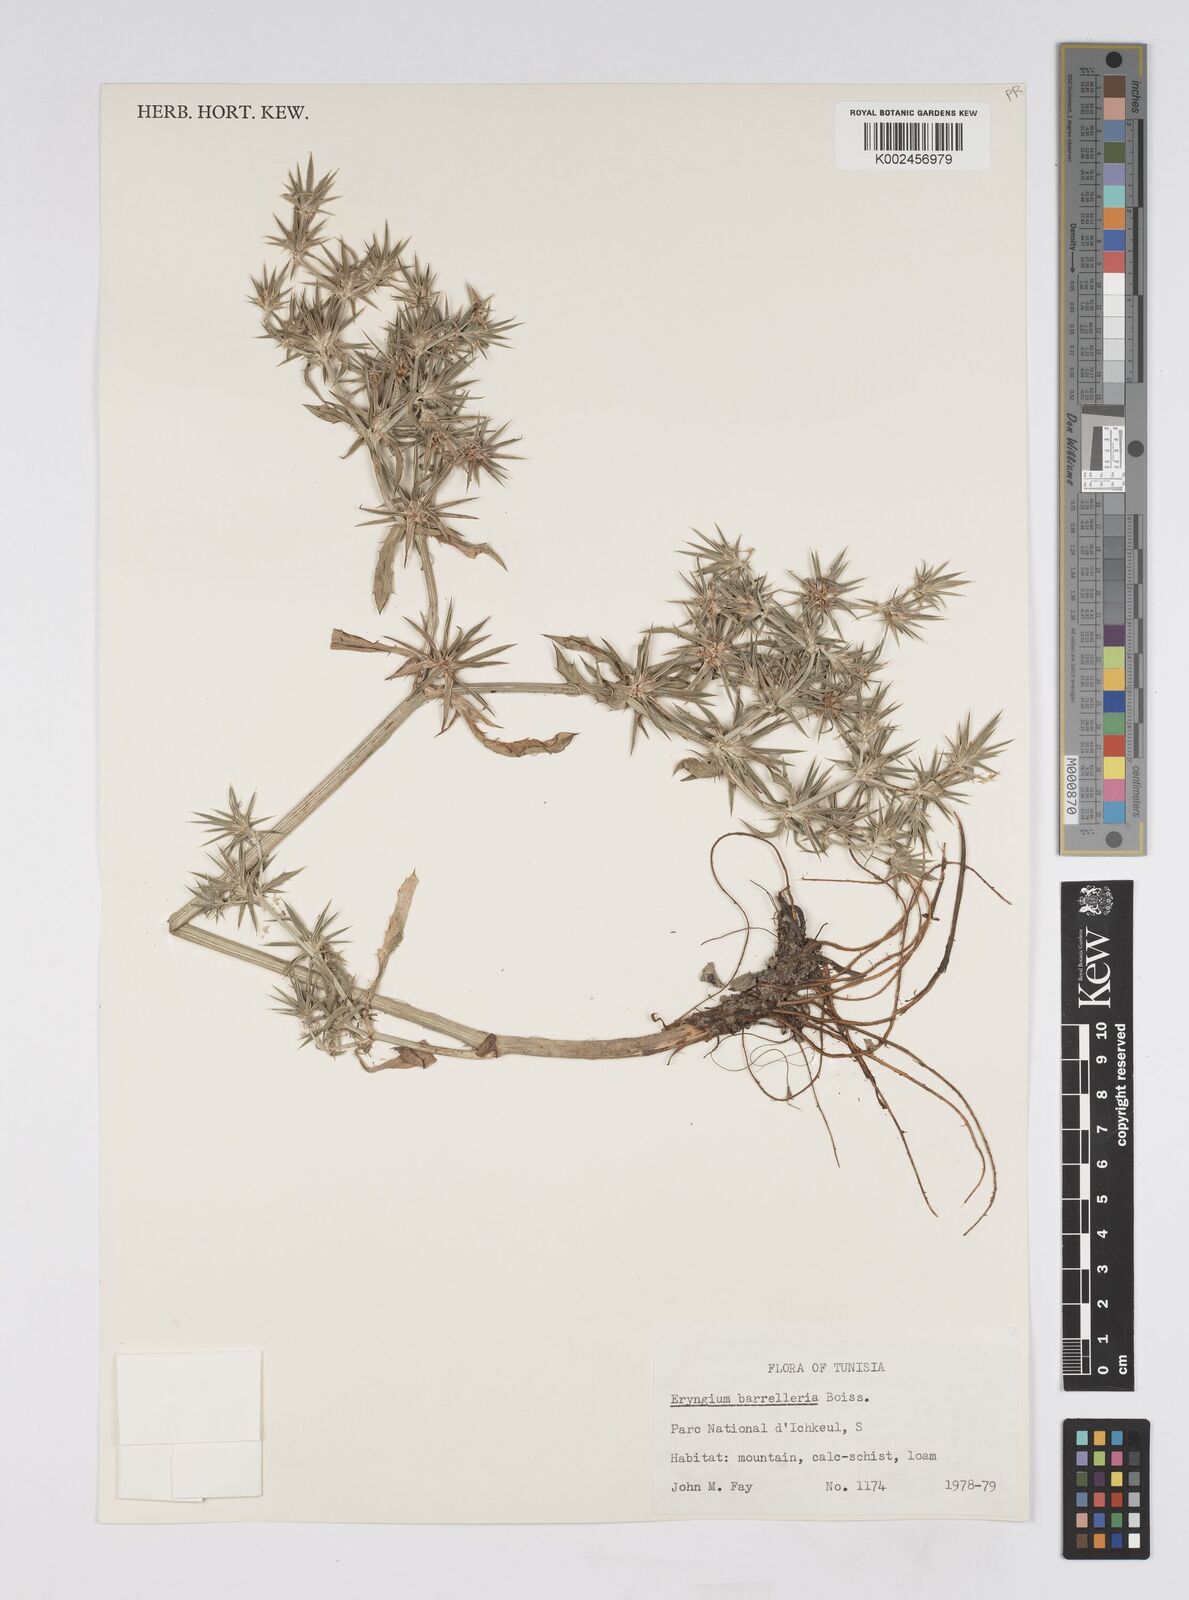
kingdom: Plantae
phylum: Tracheophyta
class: Magnoliopsida
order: Apiales
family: Apiaceae
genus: Eryngium
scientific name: Eryngium pusillum
